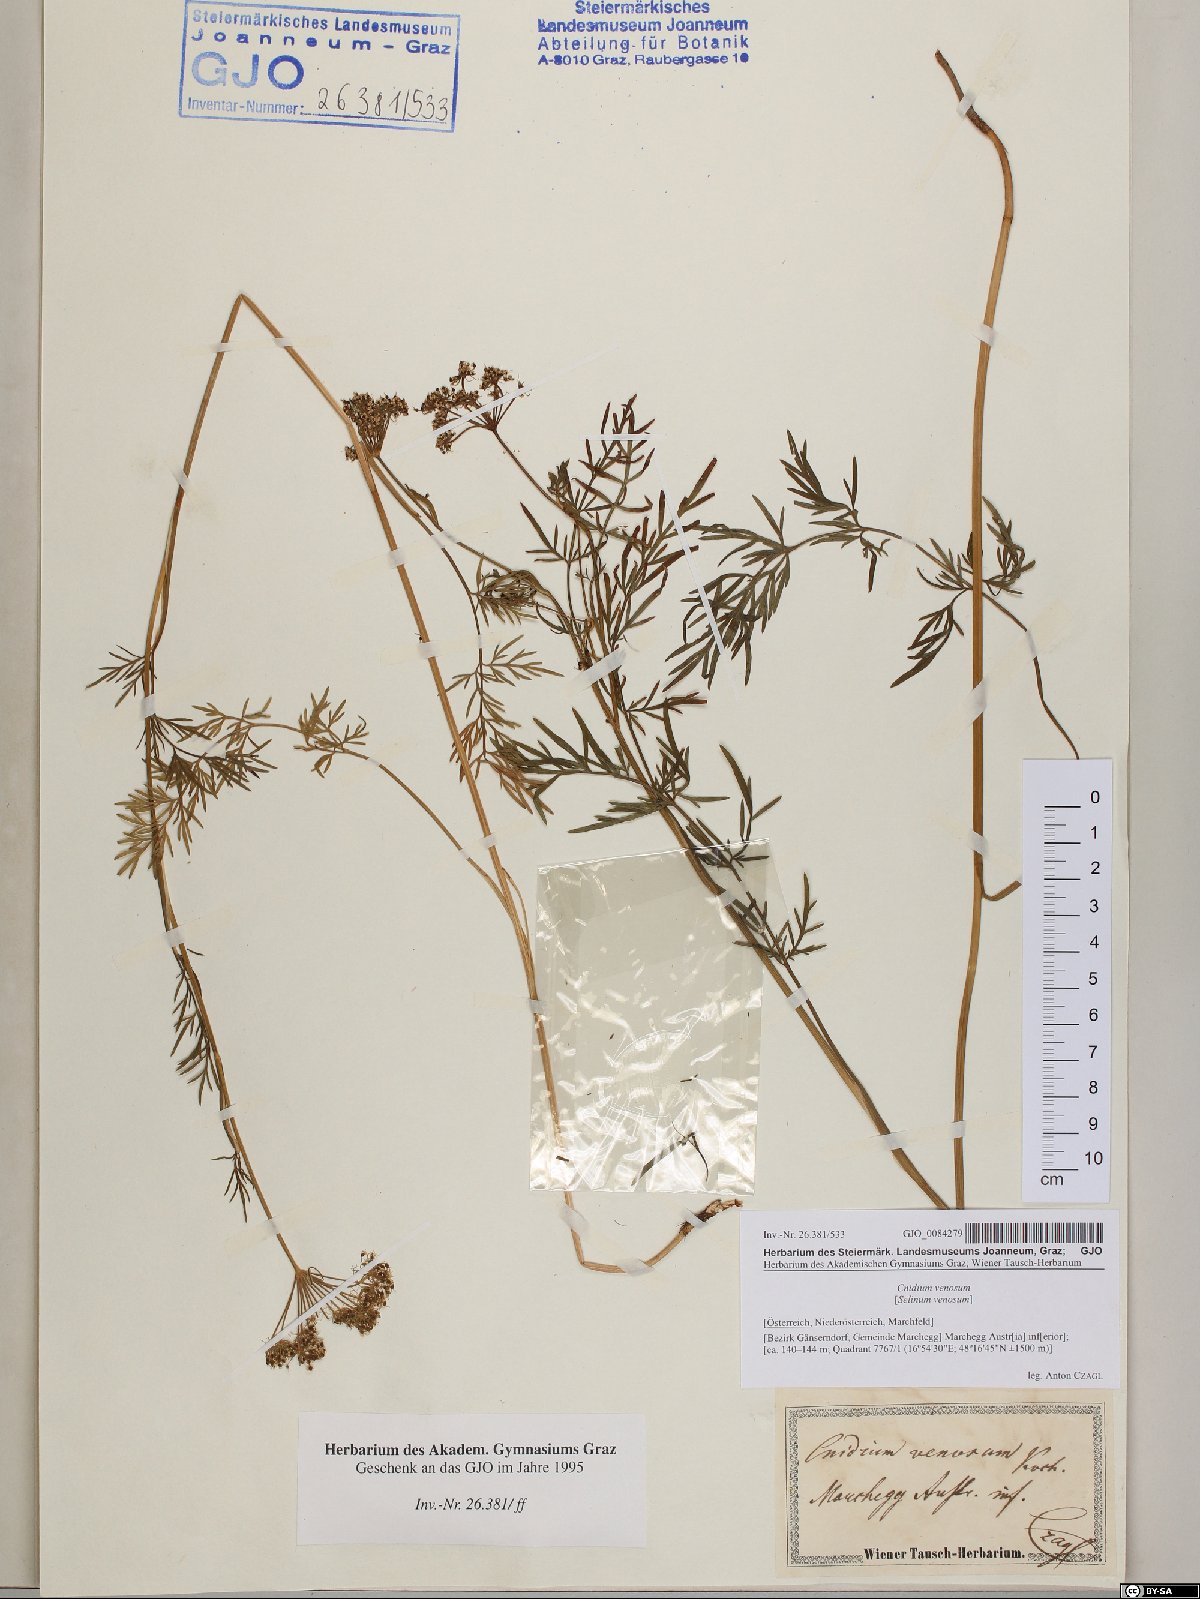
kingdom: Plantae
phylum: Tracheophyta
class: Magnoliopsida
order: Apiales
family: Apiaceae
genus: Kadenia
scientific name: Kadenia dubia
